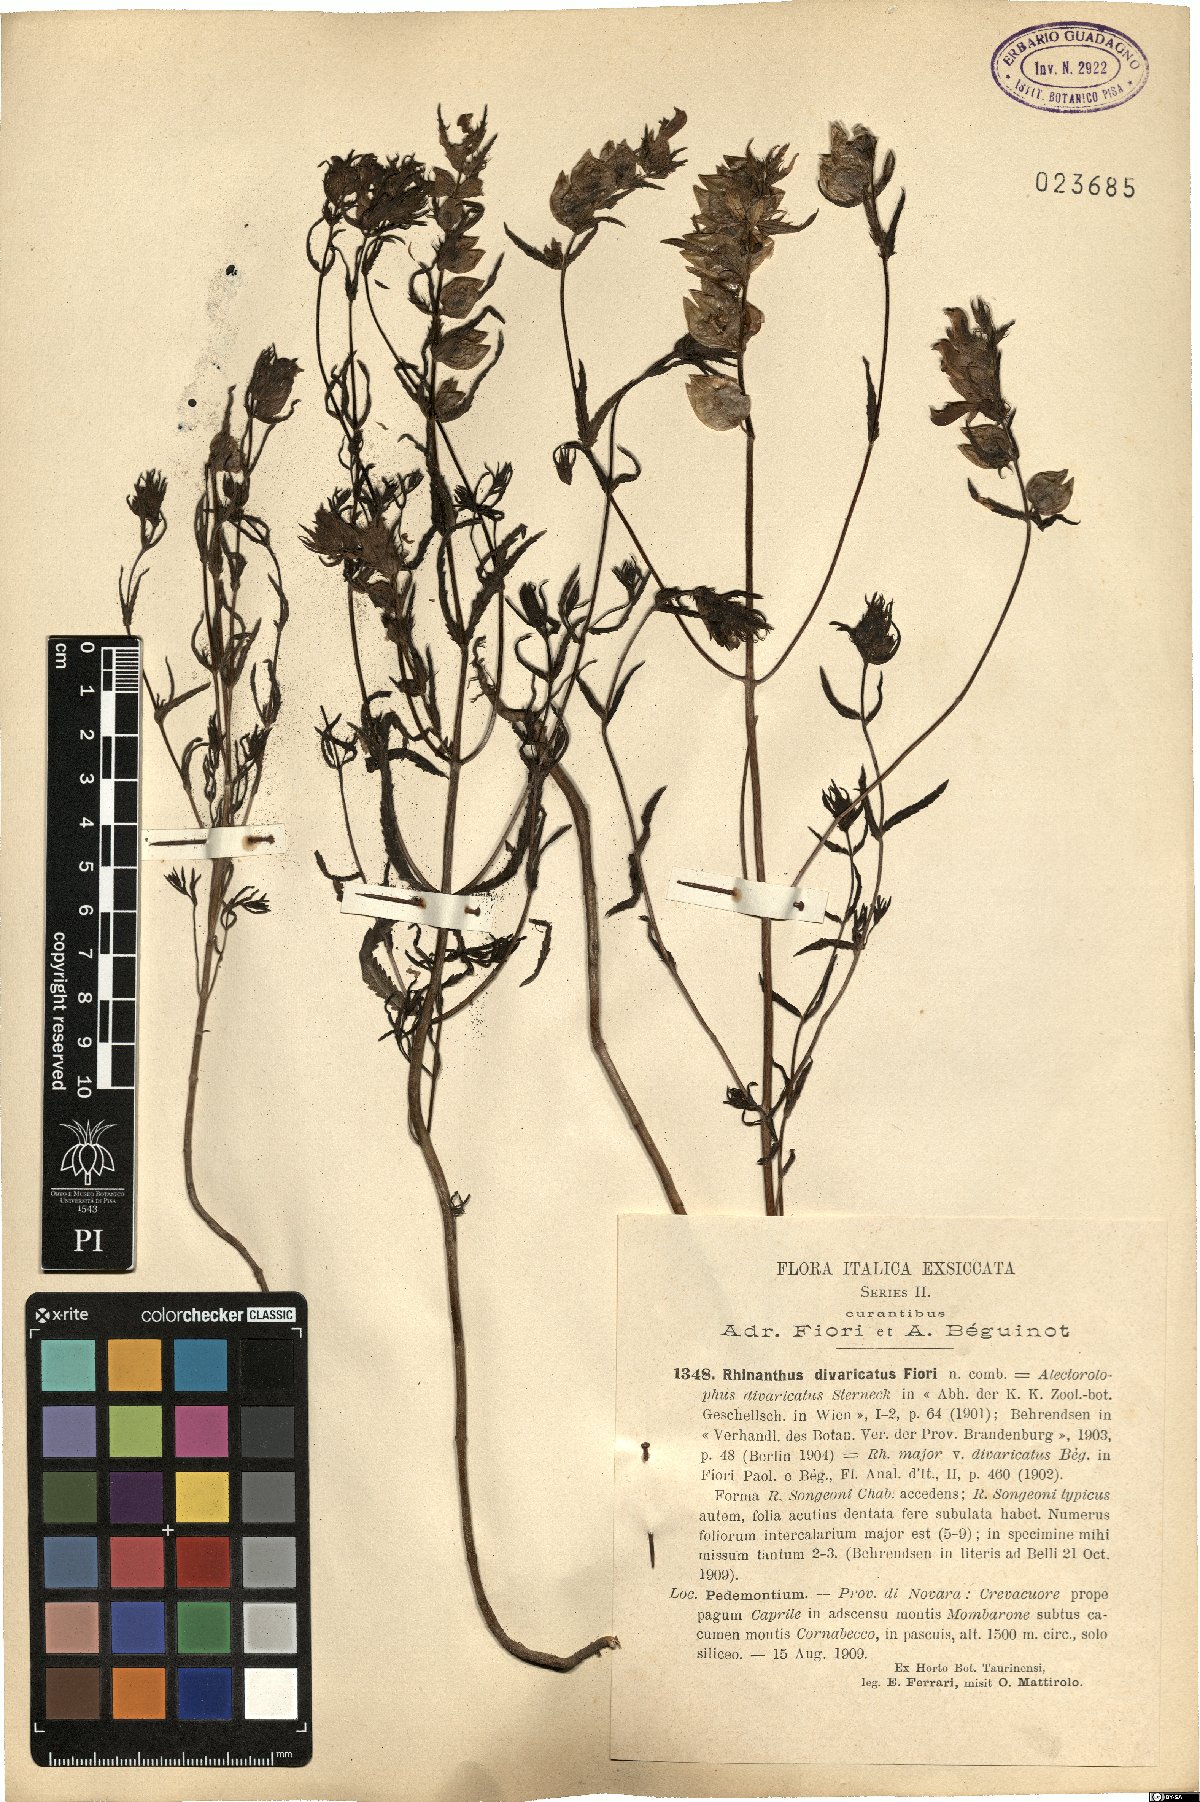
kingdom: Plantae
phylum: Tracheophyta
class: Magnoliopsida
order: Lamiales
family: Orobanchaceae
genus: Rhinanthus
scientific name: Rhinanthus ovifugus
